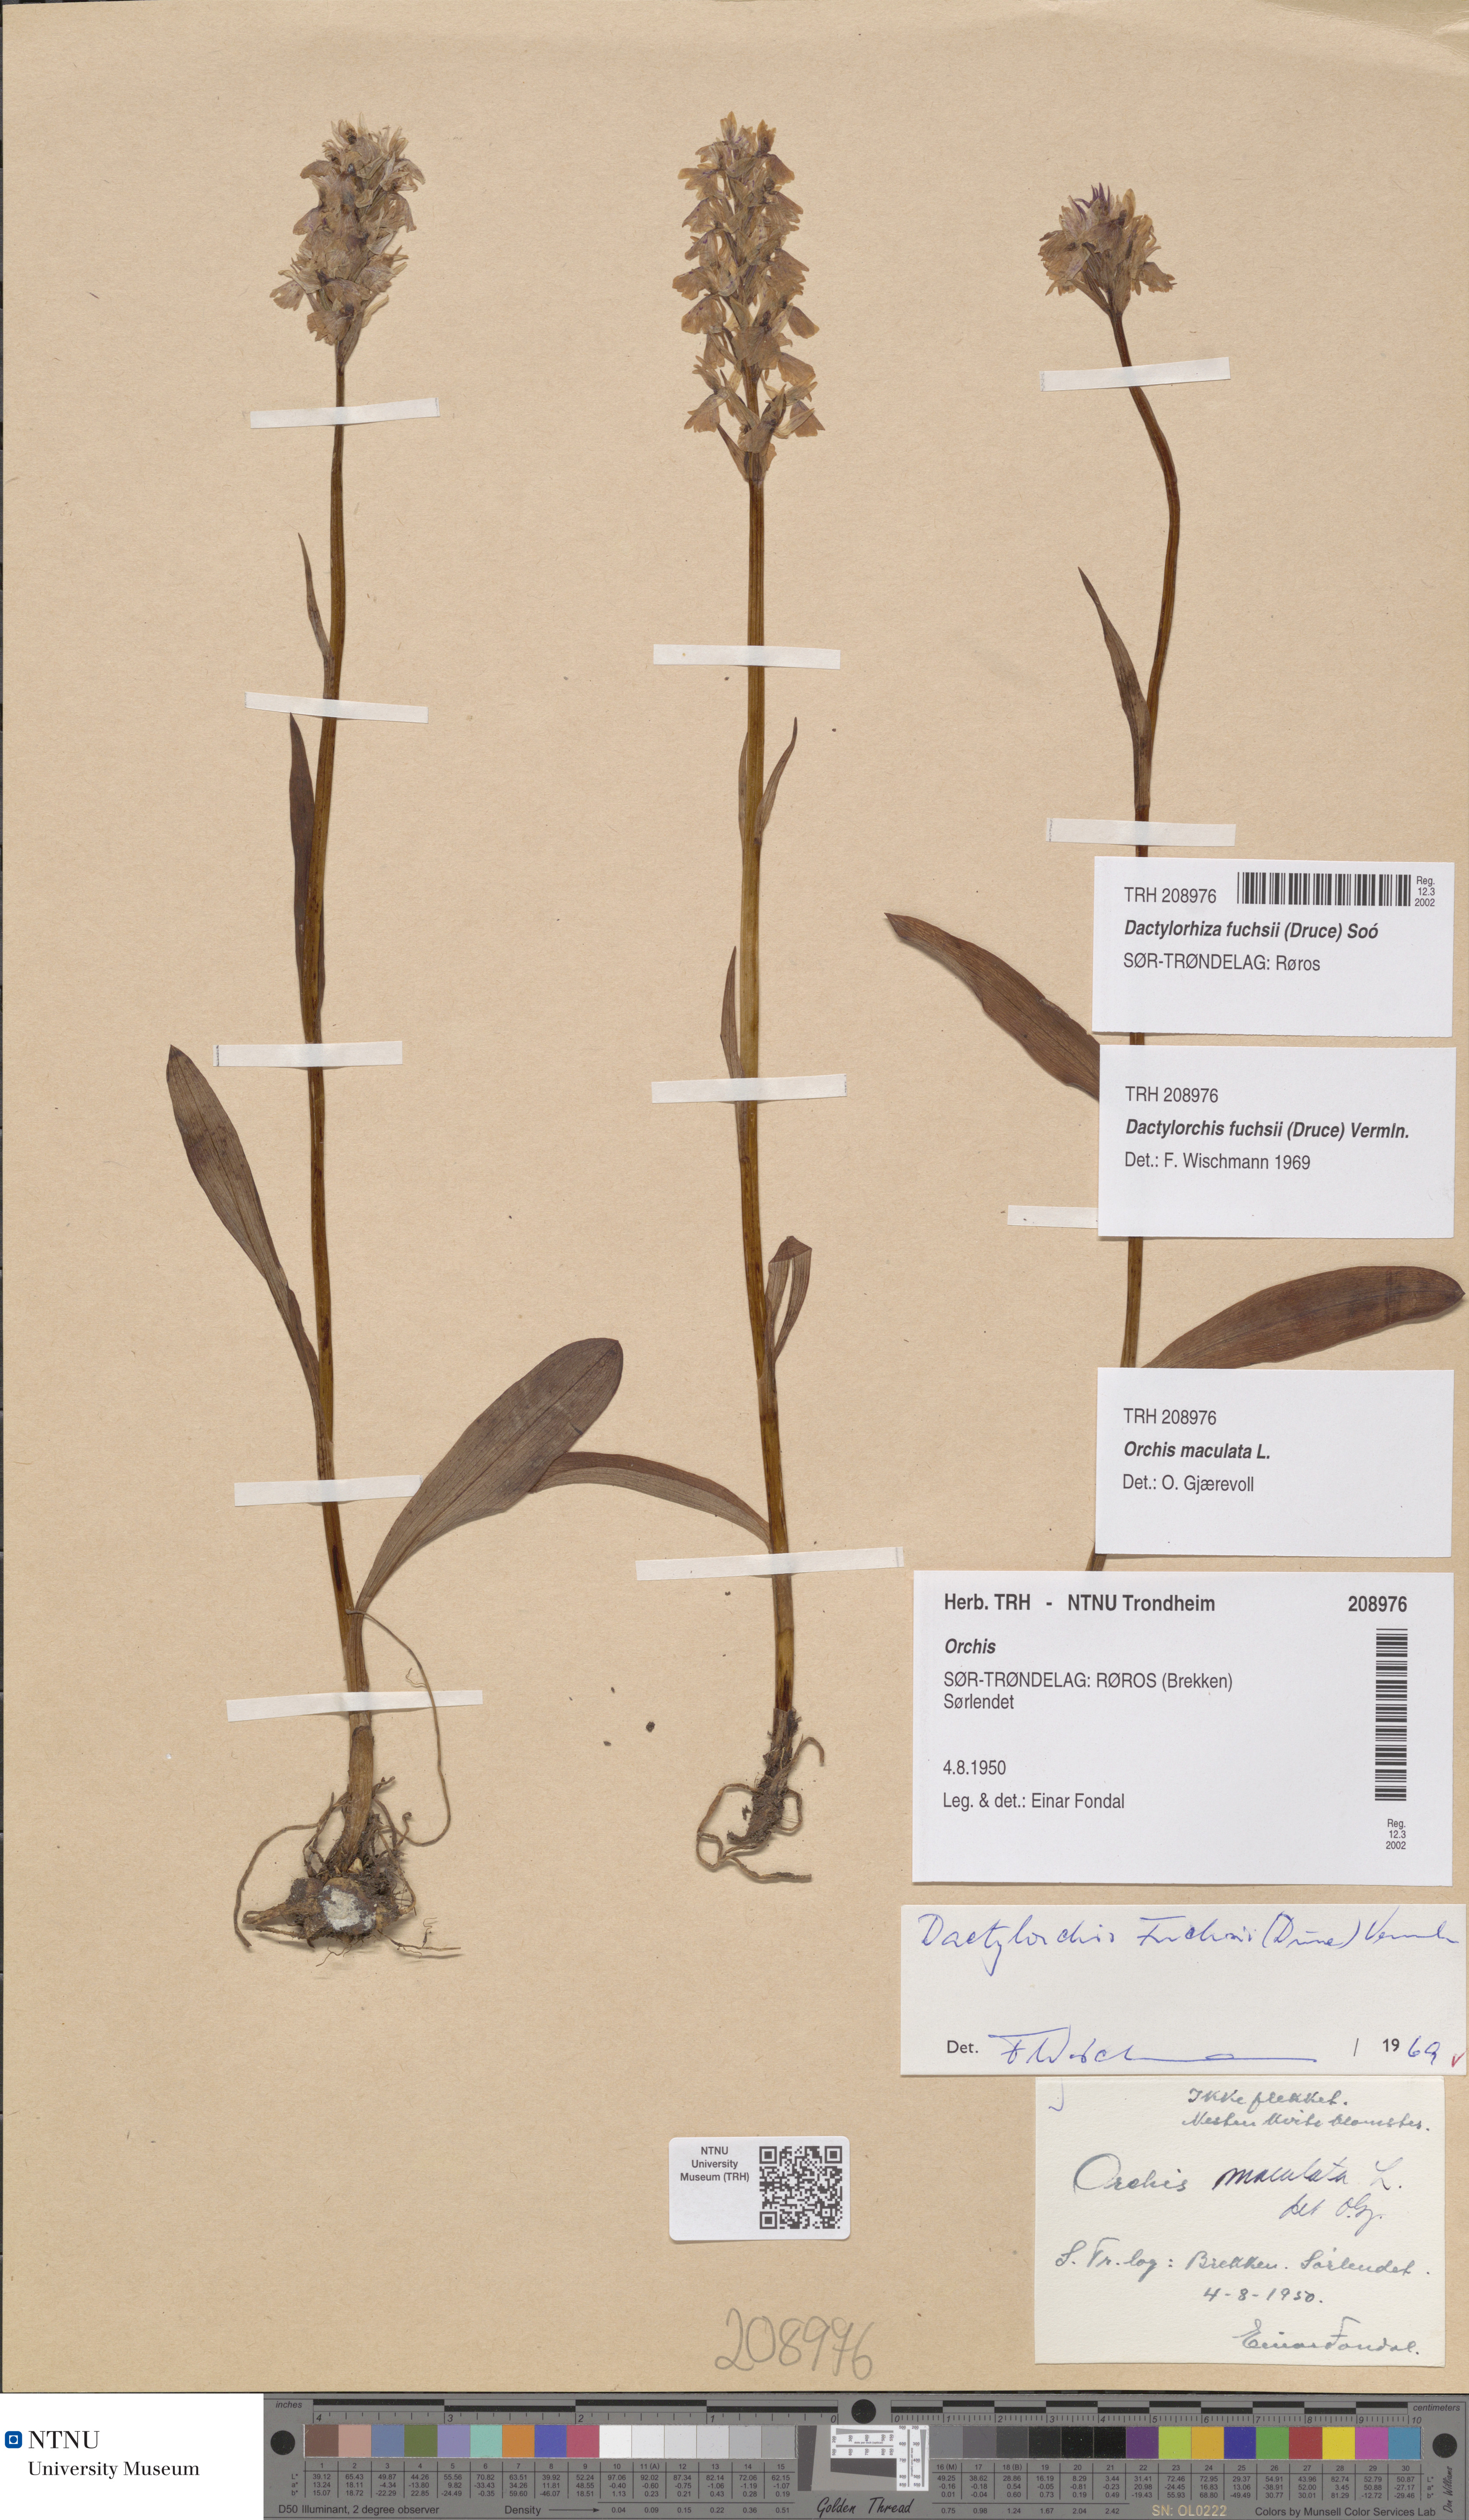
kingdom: Plantae
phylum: Tracheophyta
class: Liliopsida
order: Asparagales
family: Orchidaceae
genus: Dactylorhiza
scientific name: Dactylorhiza maculata
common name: Heath spotted-orchid
